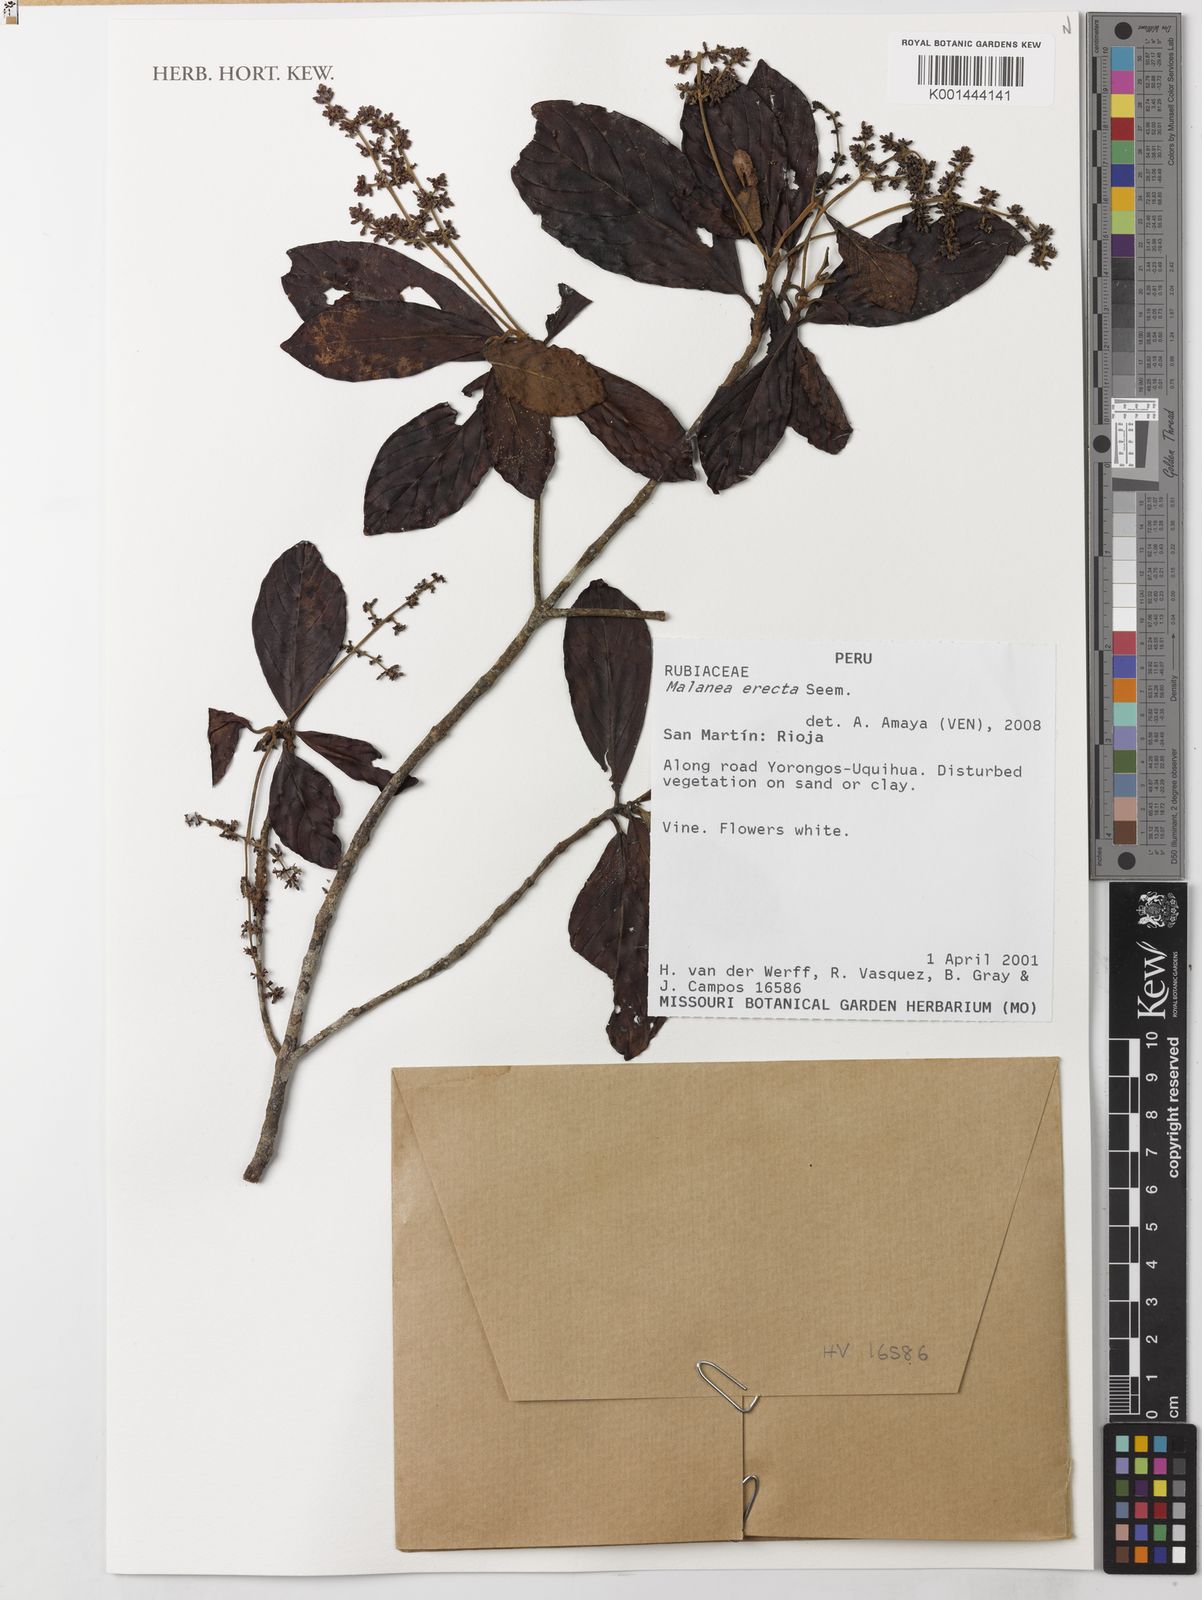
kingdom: Plantae
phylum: Tracheophyta
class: Magnoliopsida
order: Gentianales
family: Rubiaceae
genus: Malanea
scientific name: Malanea erecta
